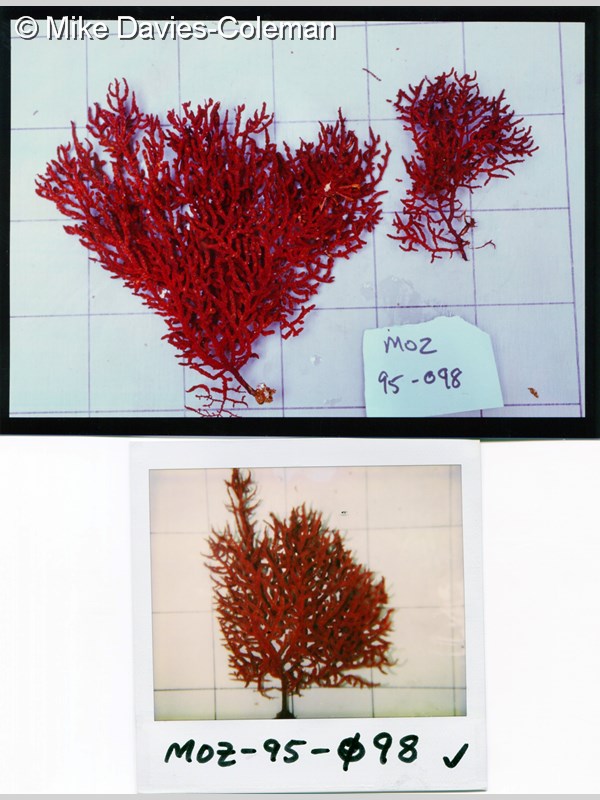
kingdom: Animalia
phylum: Cnidaria
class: Anthozoa
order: Malacalcyonacea
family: Gorgoniidae
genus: Leptogorgia
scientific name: Leptogorgia gilchristi
